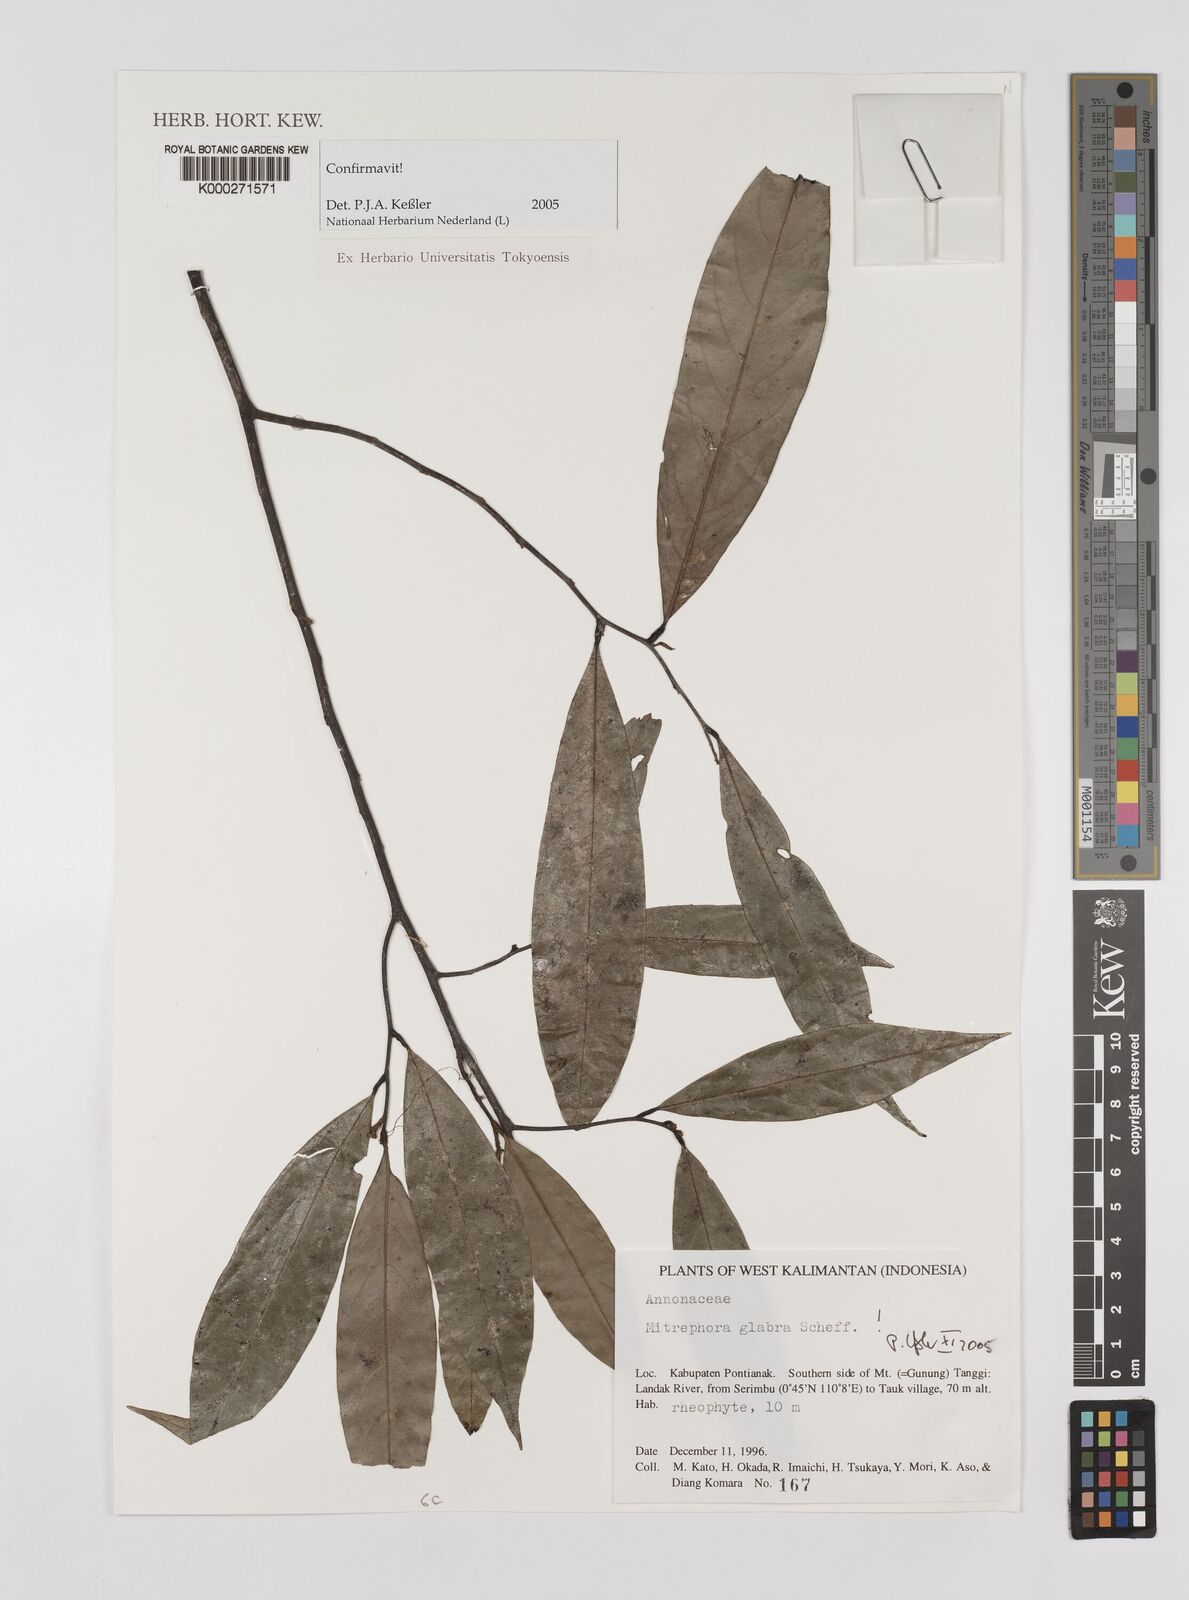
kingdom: Plantae
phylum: Tracheophyta
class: Magnoliopsida
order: Magnoliales
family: Annonaceae
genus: Mitrephora
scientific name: Mitrephora glabra
